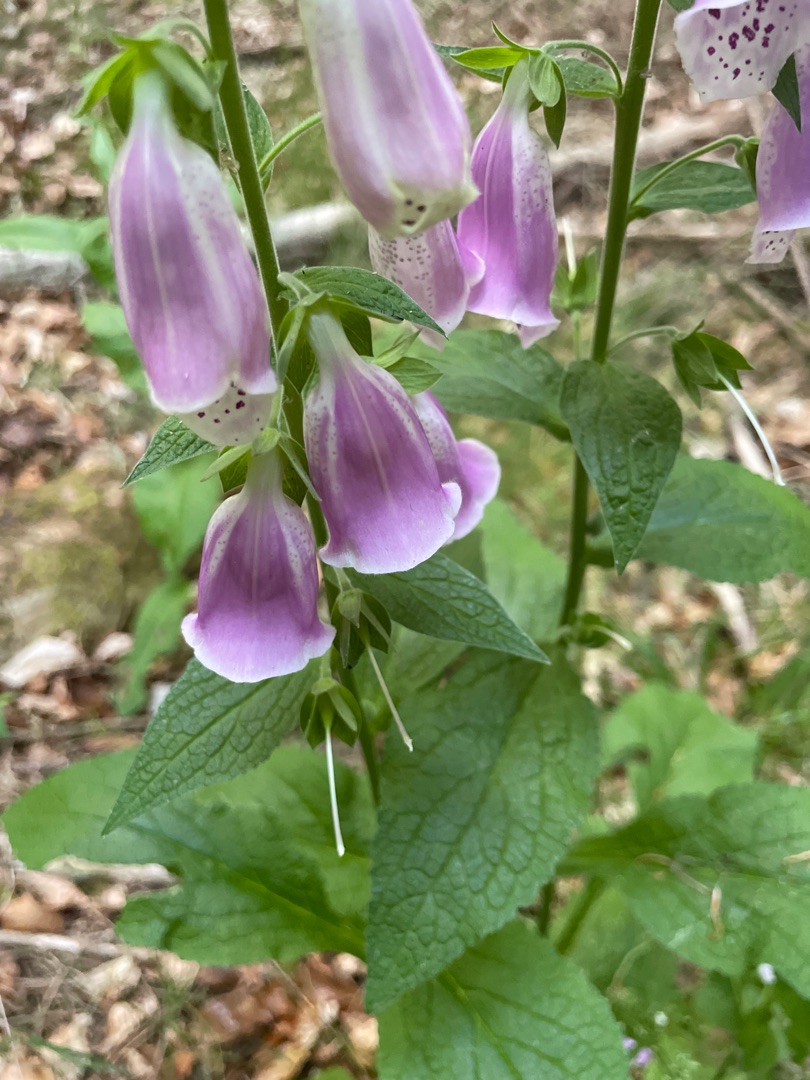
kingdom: Plantae
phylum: Tracheophyta
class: Magnoliopsida
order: Lamiales
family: Plantaginaceae
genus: Digitalis
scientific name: Digitalis purpurea
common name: Almindelig fingerbøl
